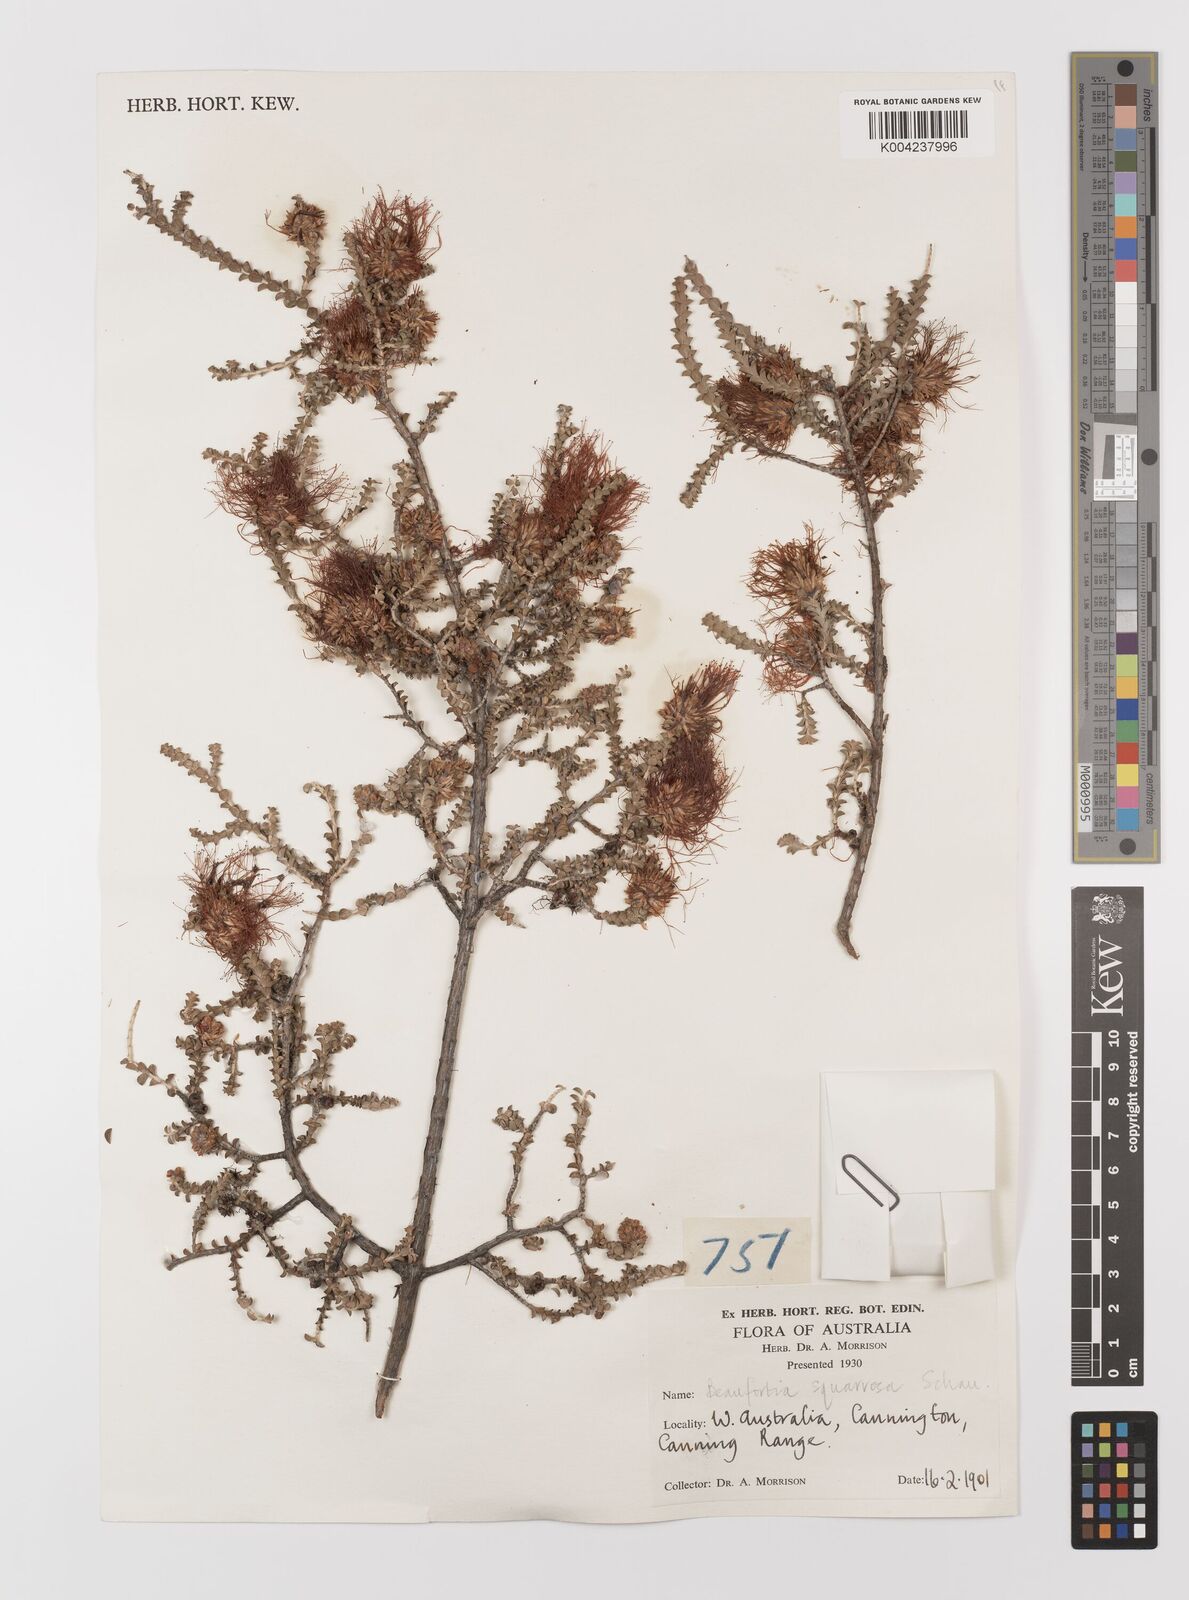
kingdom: Plantae
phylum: Tracheophyta
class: Magnoliopsida
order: Myrtales
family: Myrtaceae
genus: Melaleuca
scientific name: Melaleuca pulcherrima
